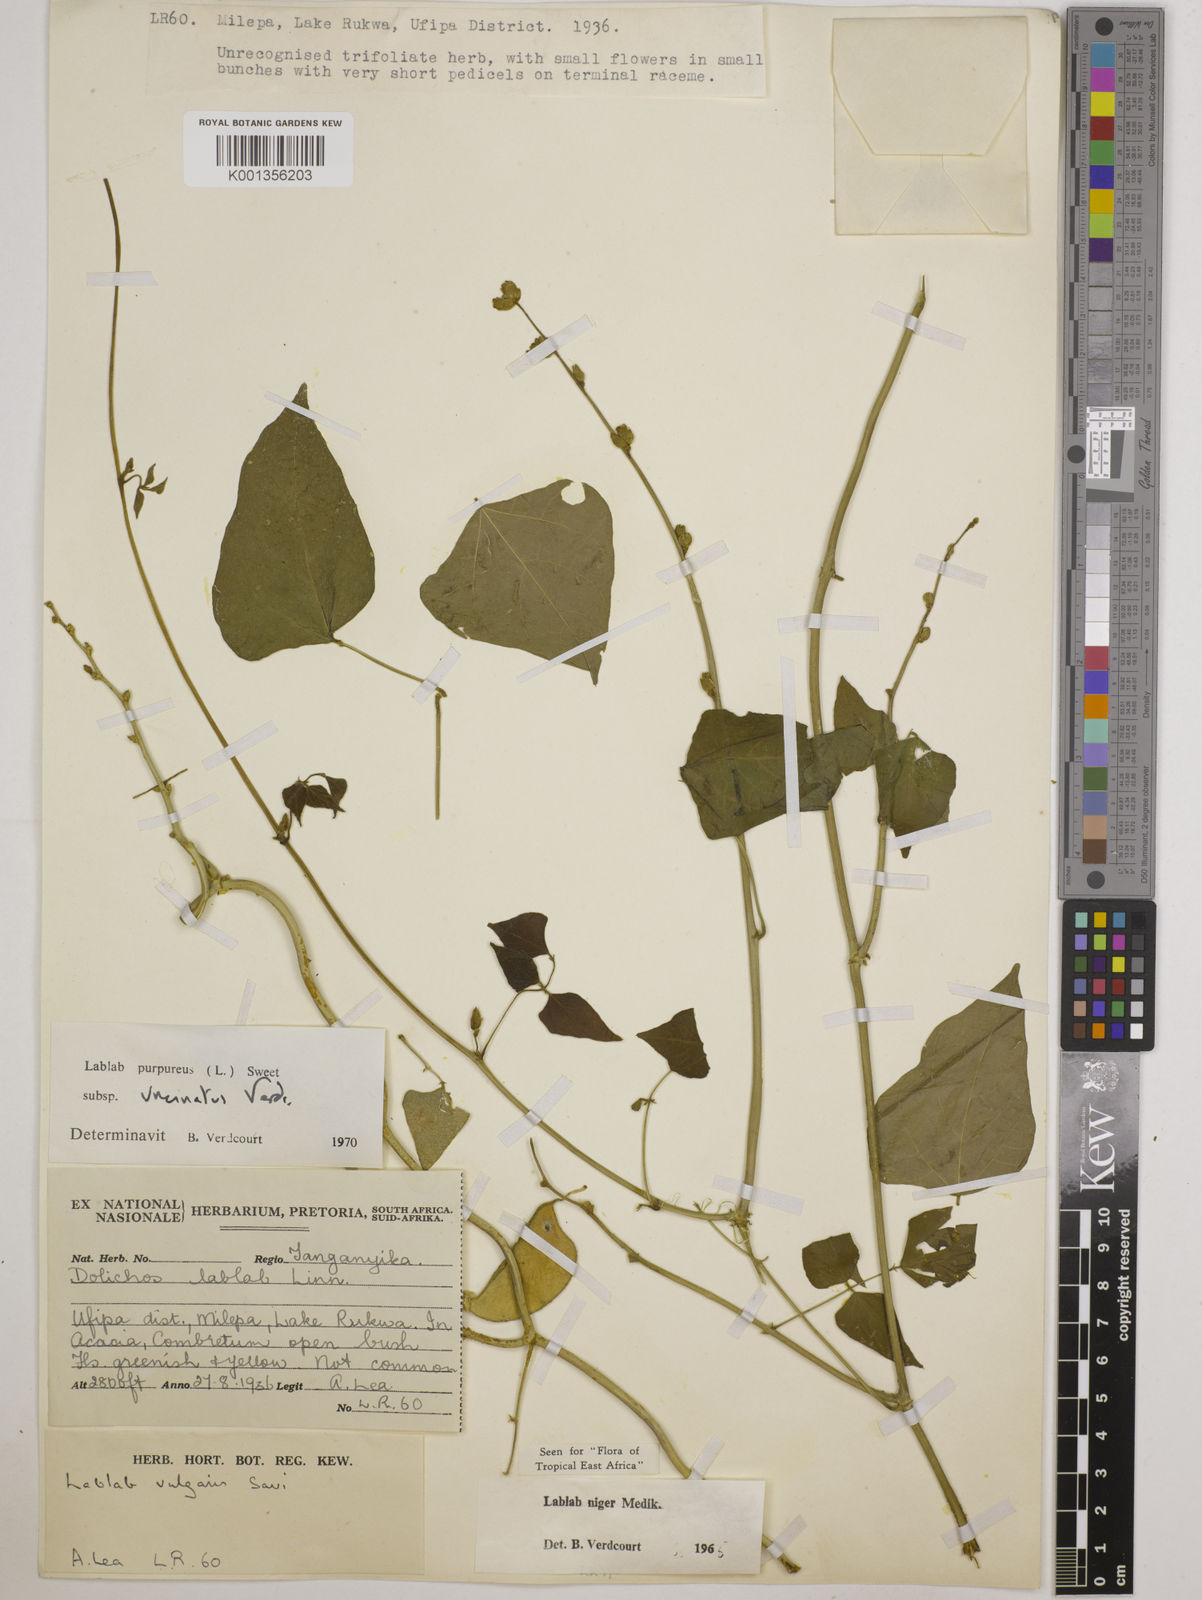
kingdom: Plantae
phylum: Tracheophyta
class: Magnoliopsida
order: Fabales
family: Fabaceae
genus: Lablab
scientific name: Lablab purpureus
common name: Lablab-bean
